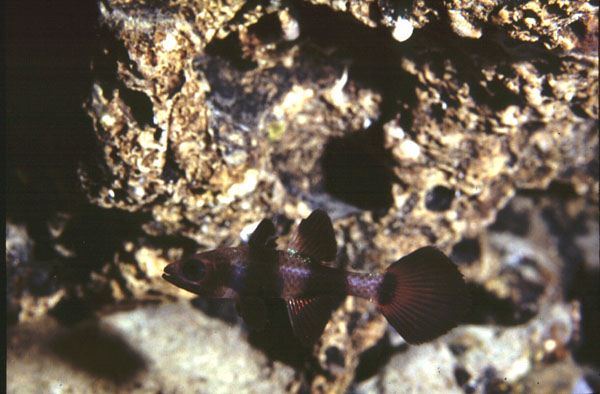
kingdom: Animalia
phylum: Chordata
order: Perciformes
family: Apogonidae
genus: Pseudamia
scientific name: Pseudamia zonata
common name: Paddlefin cardinalfish
